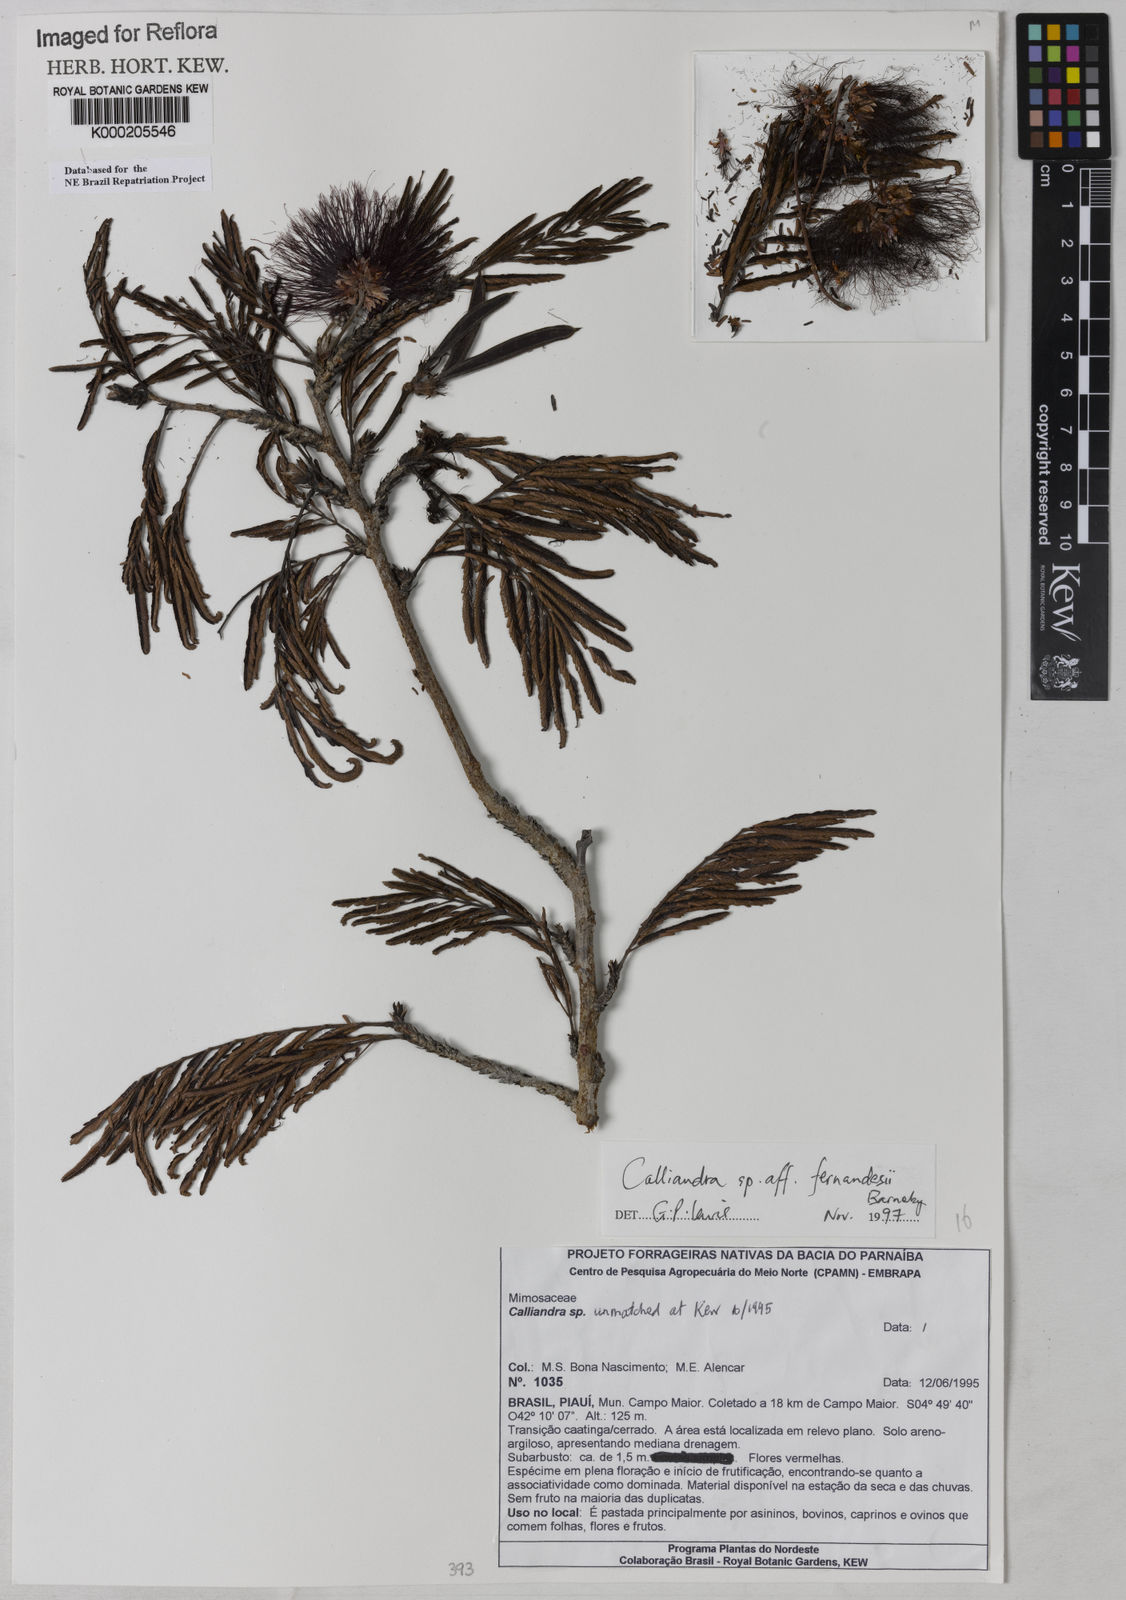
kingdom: Plantae
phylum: Tracheophyta
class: Magnoliopsida
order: Fabales
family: Fabaceae
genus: Calliandra
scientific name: Calliandra fernandesii
